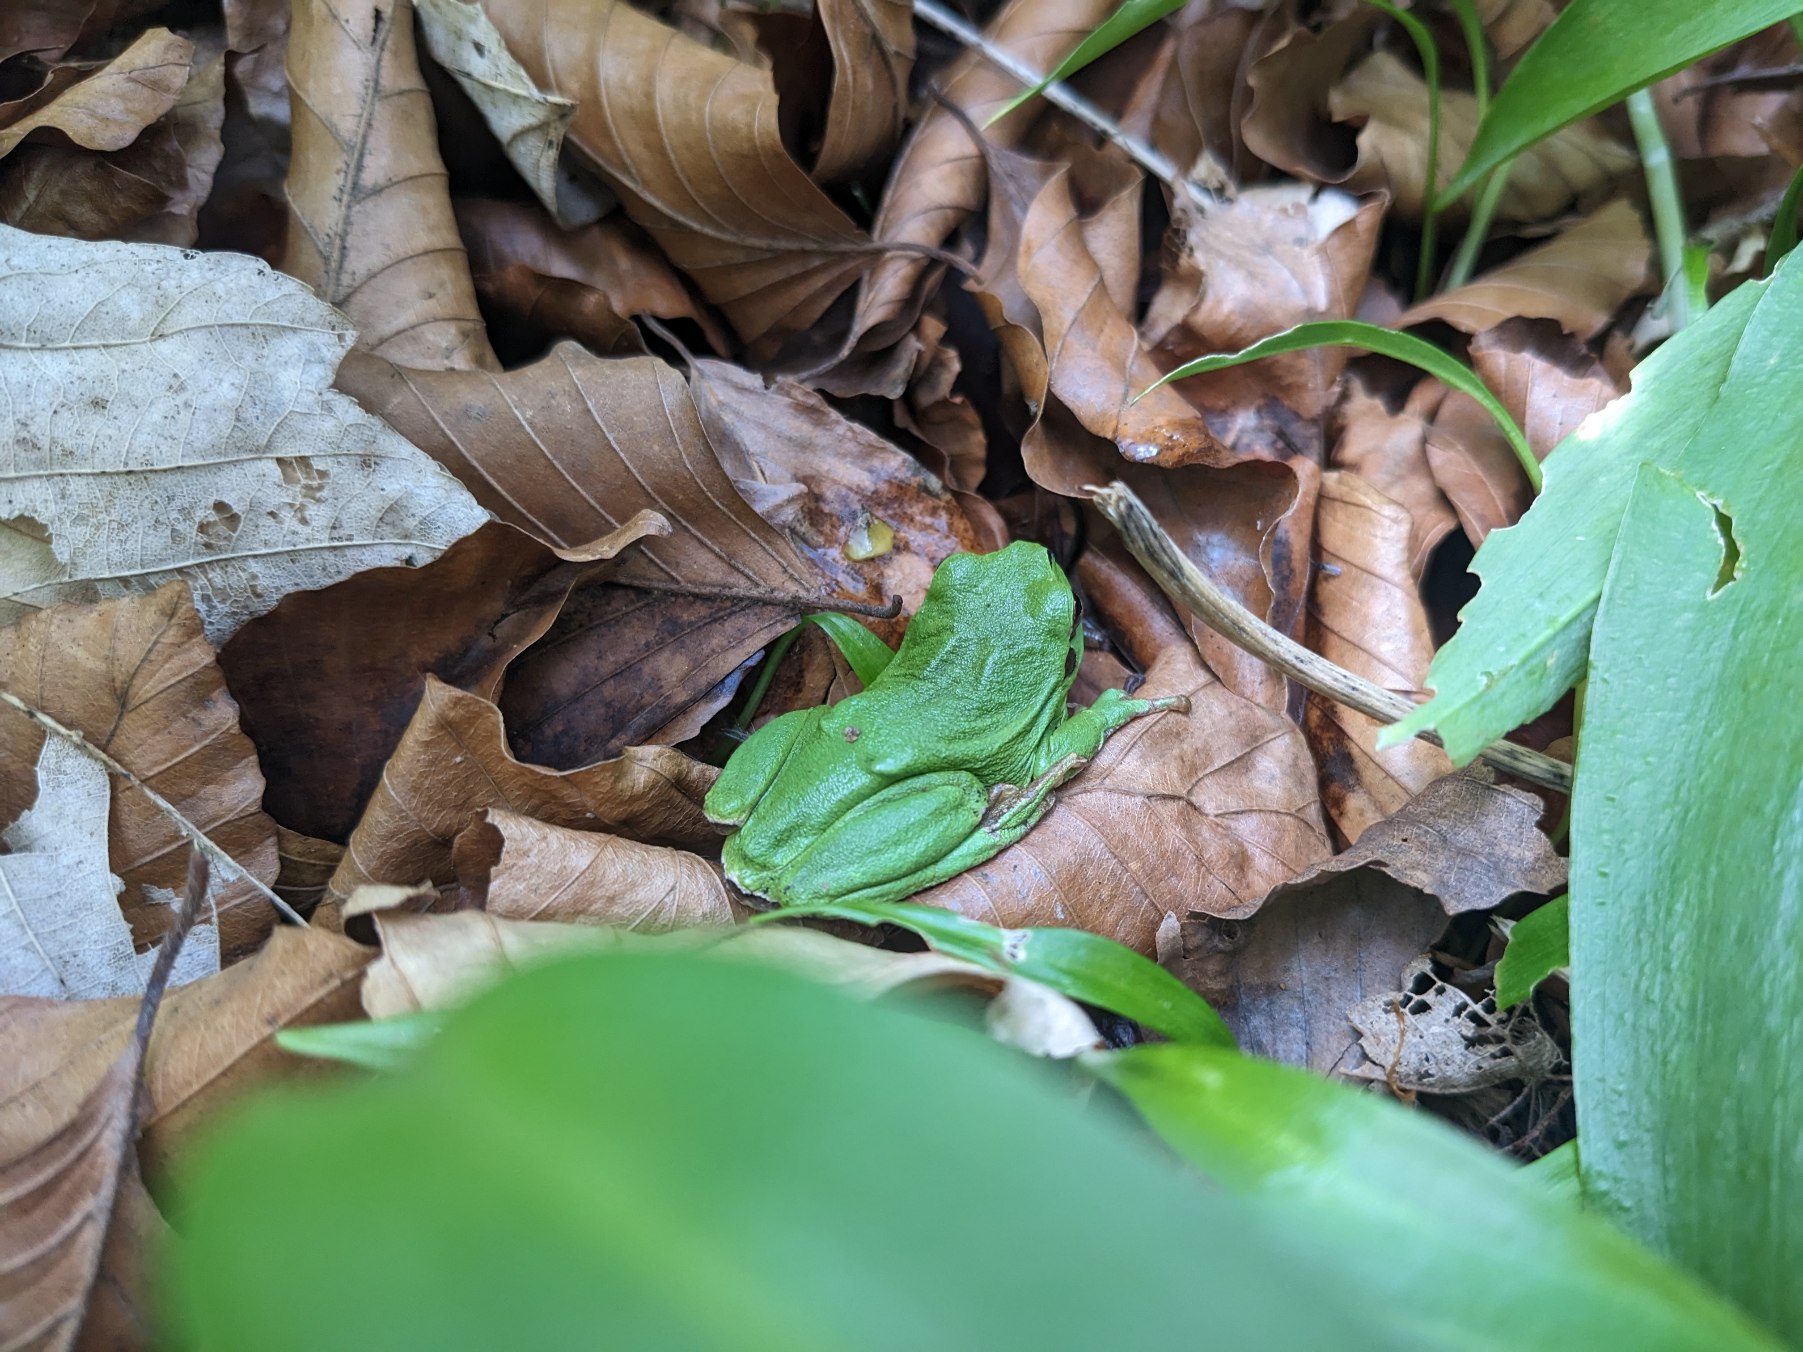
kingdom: Animalia
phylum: Chordata
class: Amphibia
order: Anura
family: Hylidae
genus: Hyla
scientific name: Hyla arborea
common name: Løvfrø
